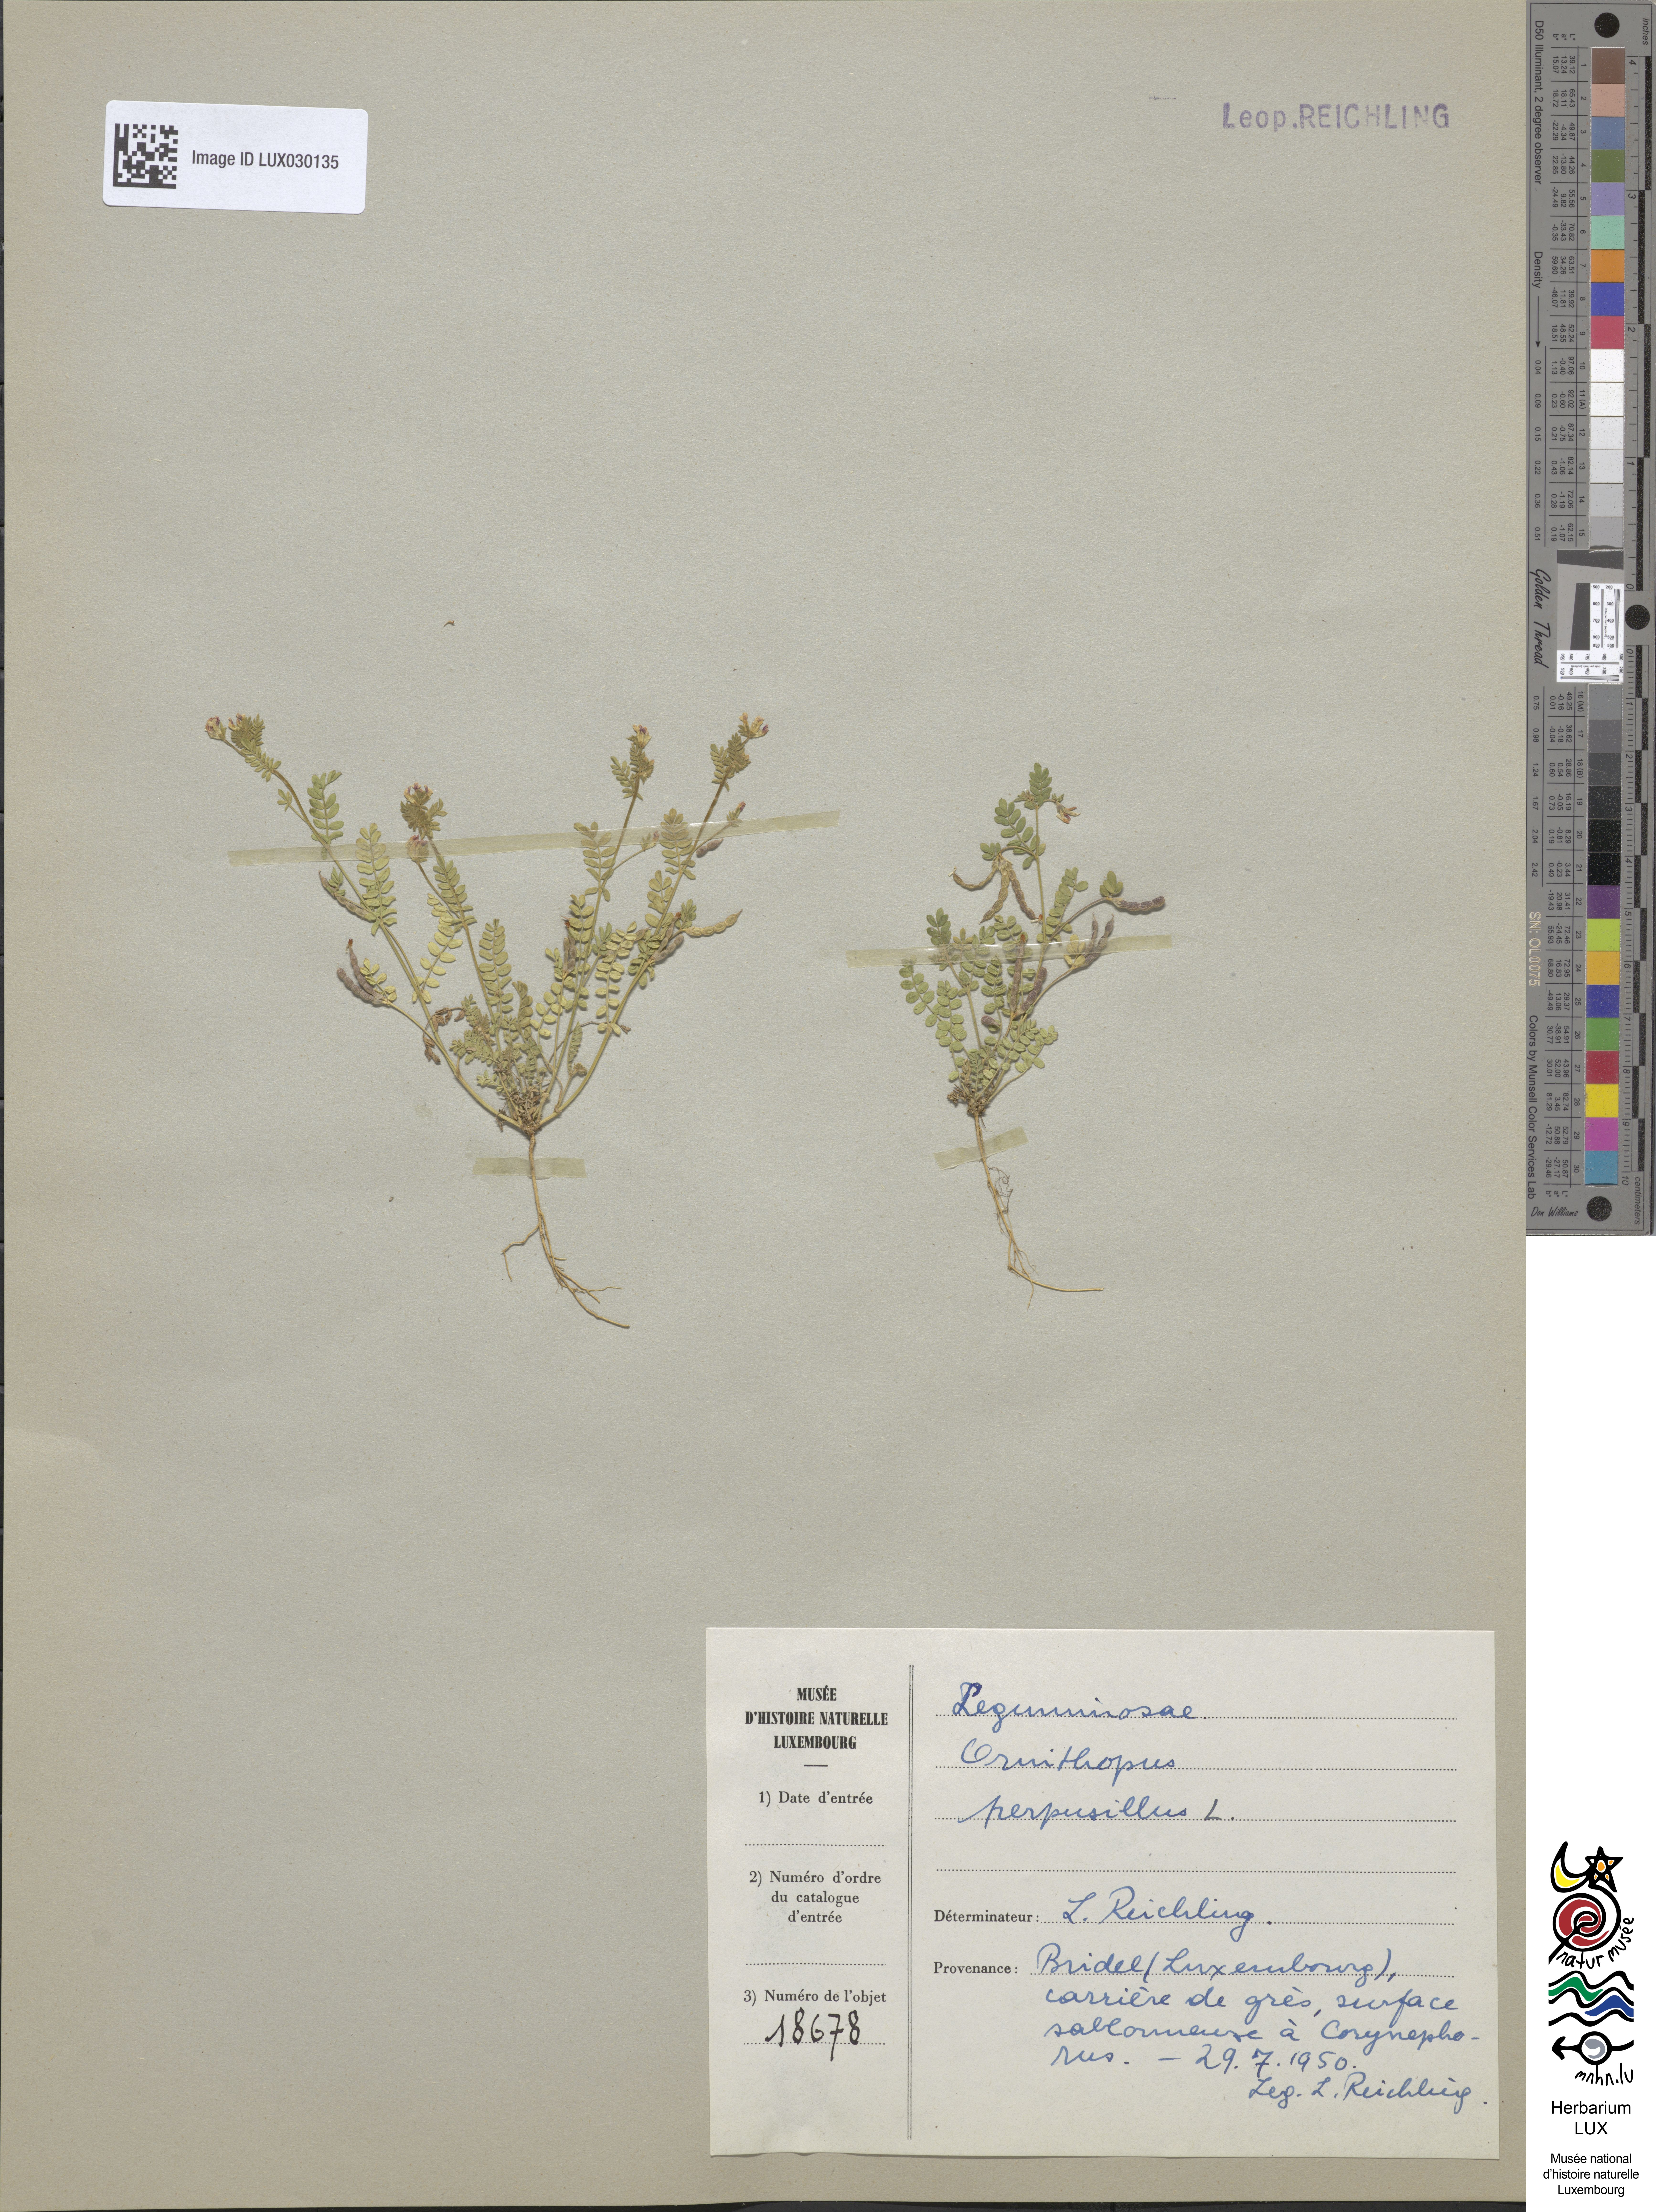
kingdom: Plantae
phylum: Tracheophyta
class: Magnoliopsida
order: Fabales
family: Fabaceae
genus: Ornithopus
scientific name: Ornithopus perpusillus
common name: Bird's-foot
